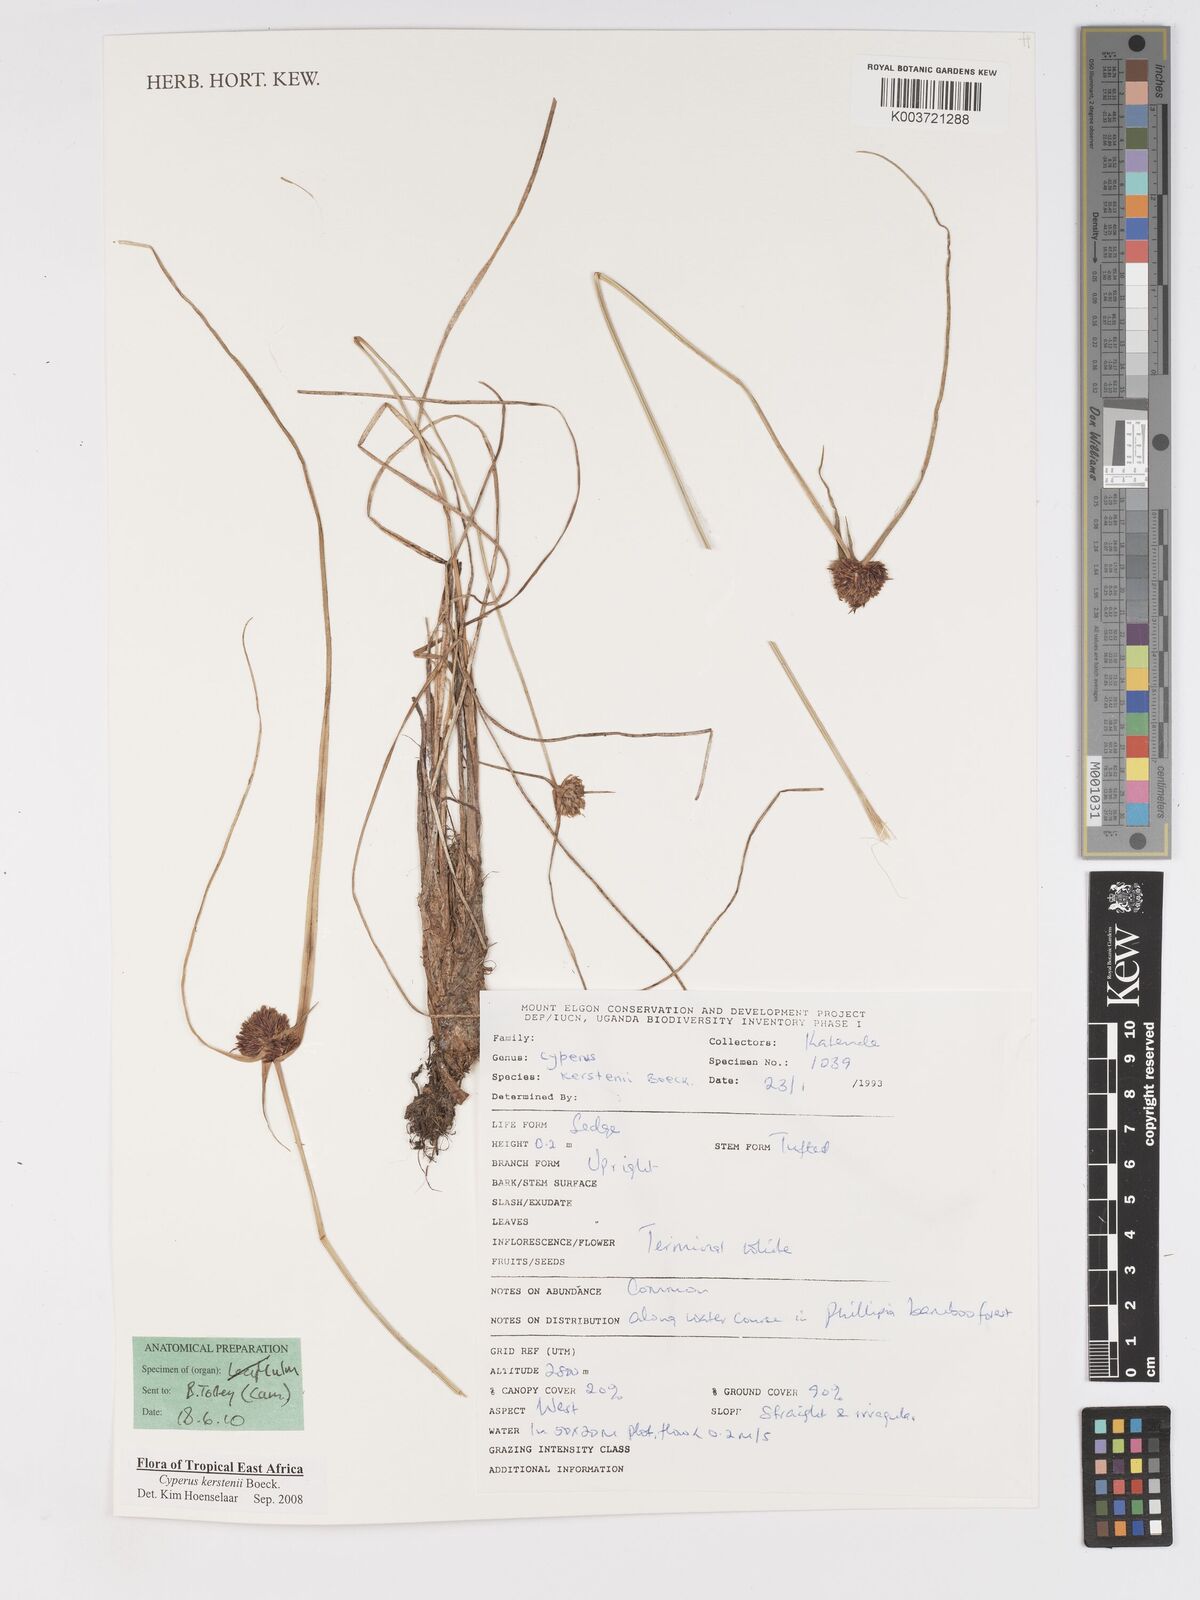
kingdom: Plantae
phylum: Tracheophyta
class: Liliopsida
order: Poales
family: Cyperaceae
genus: Cyperus
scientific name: Cyperus kerstenii
